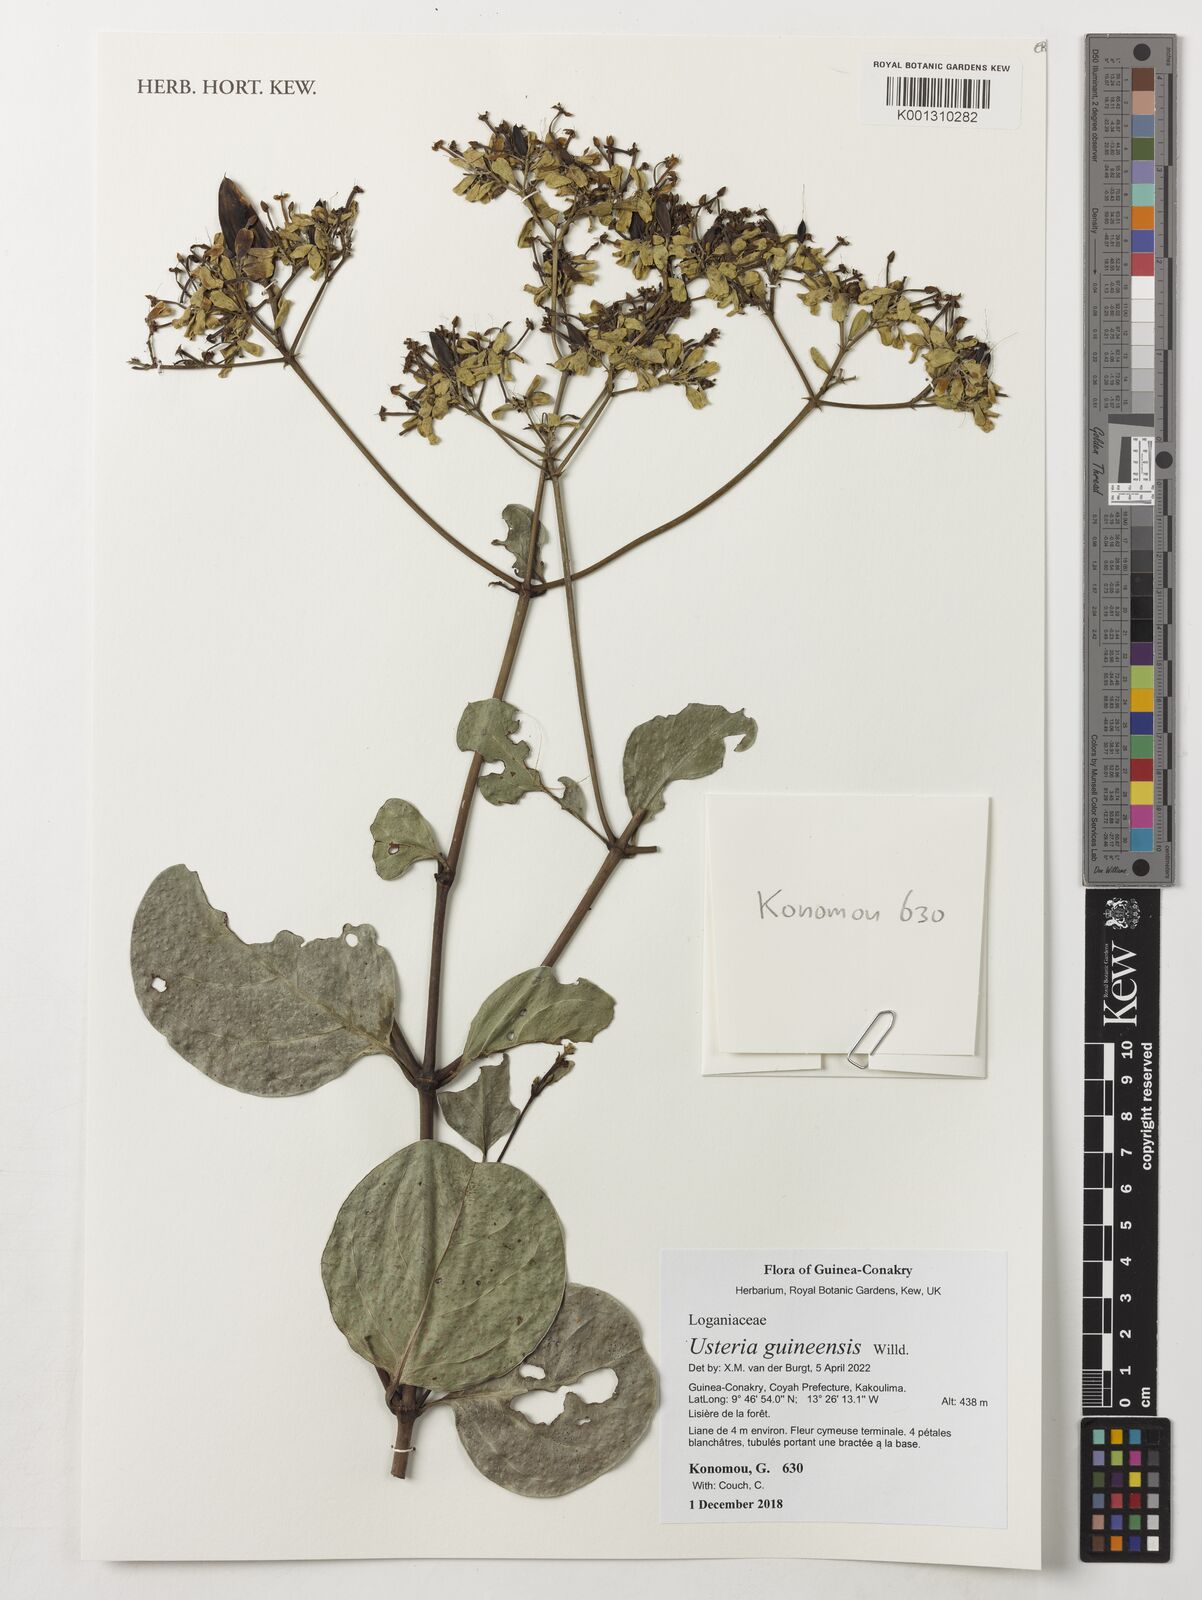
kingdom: Plantae
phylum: Tracheophyta
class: Magnoliopsida
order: Gentianales
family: Loganiaceae
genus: Usteria
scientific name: Usteria guineensis
